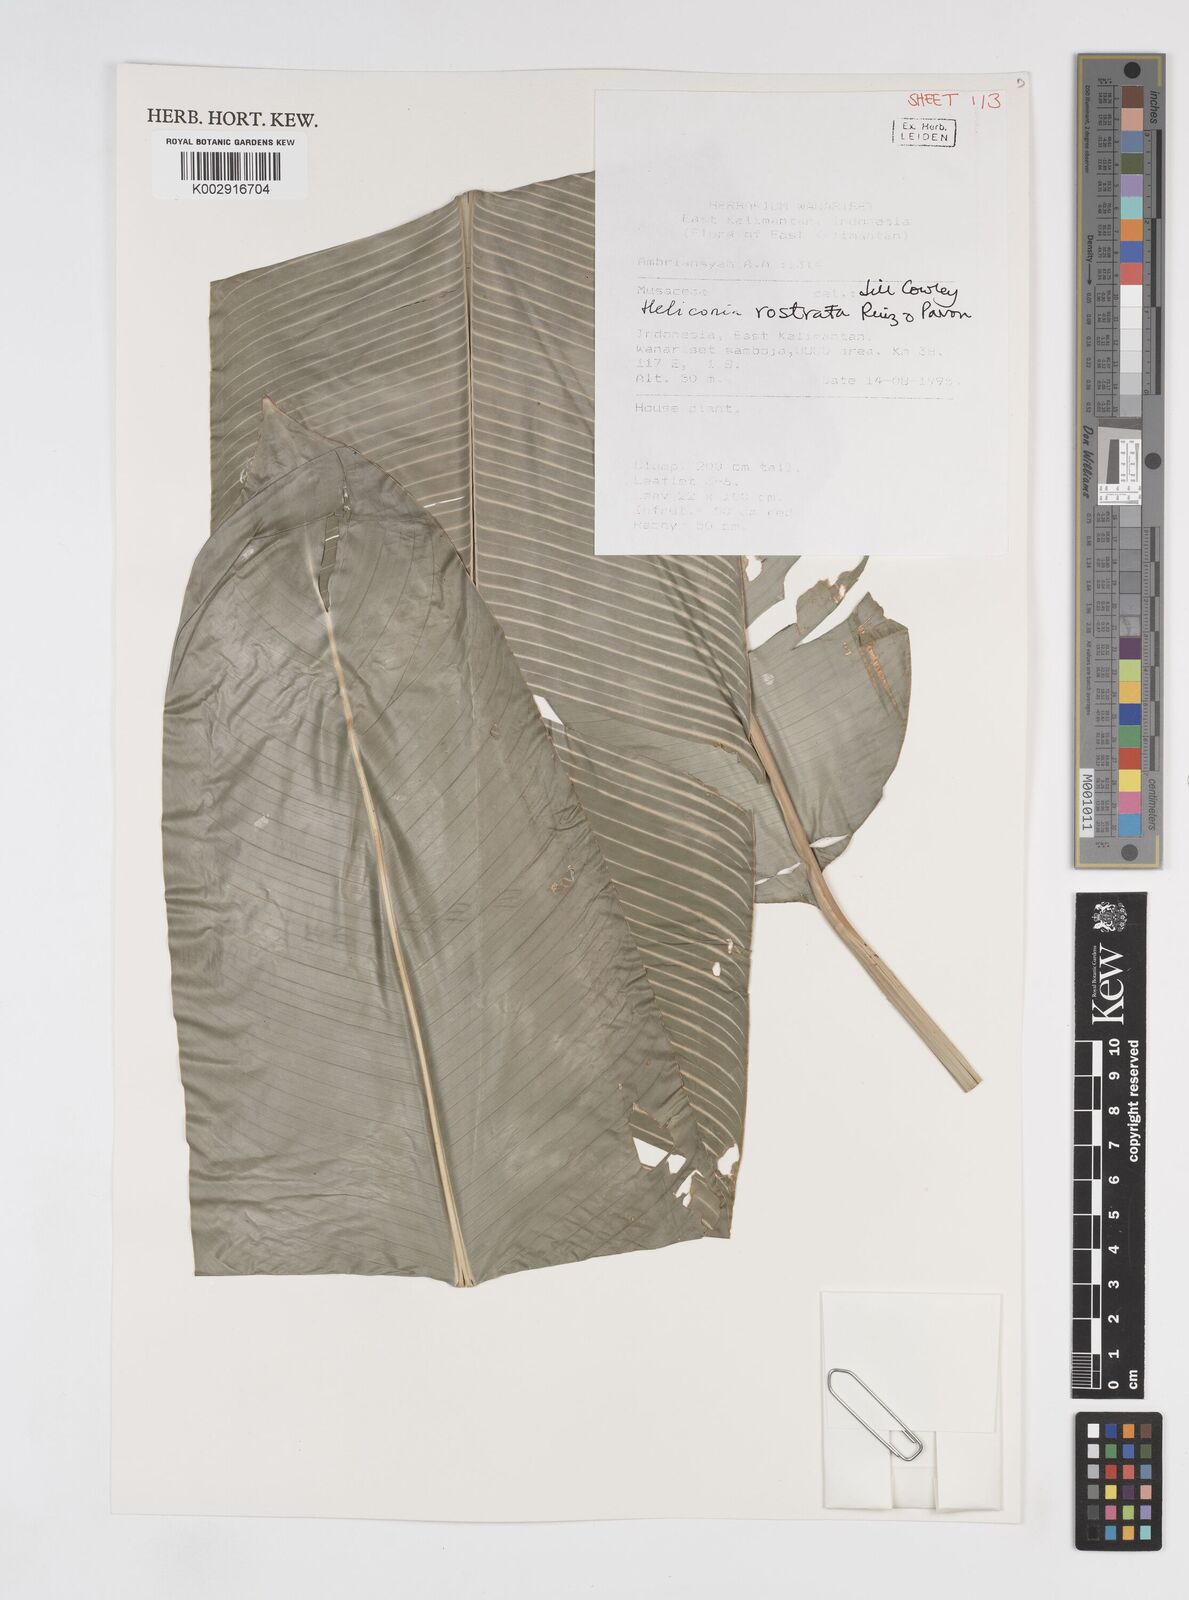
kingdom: Plantae
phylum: Tracheophyta
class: Liliopsida
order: Zingiberales
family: Heliconiaceae
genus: Heliconia
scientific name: Heliconia rostrata
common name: False bird of paradise
